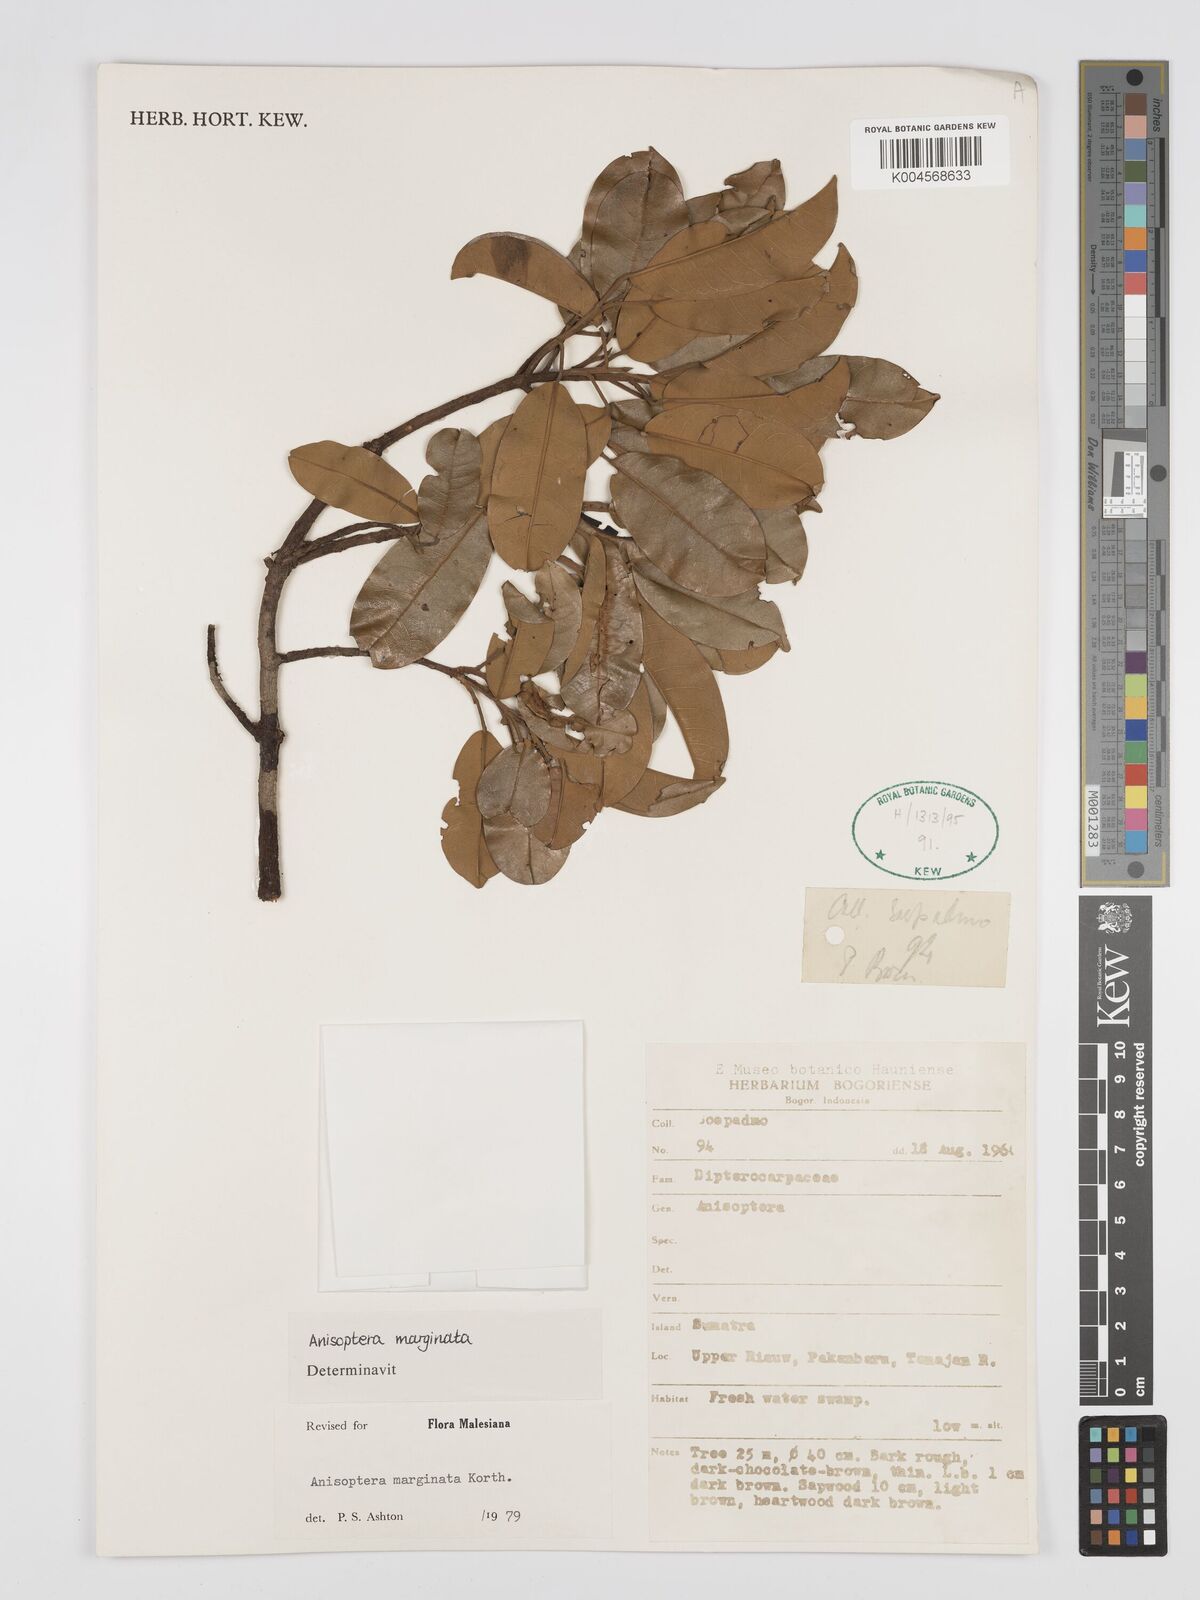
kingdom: Plantae
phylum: Tracheophyta
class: Magnoliopsida
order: Malvales
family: Dipterocarpaceae
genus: Anisoptera
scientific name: Anisoptera marginata
